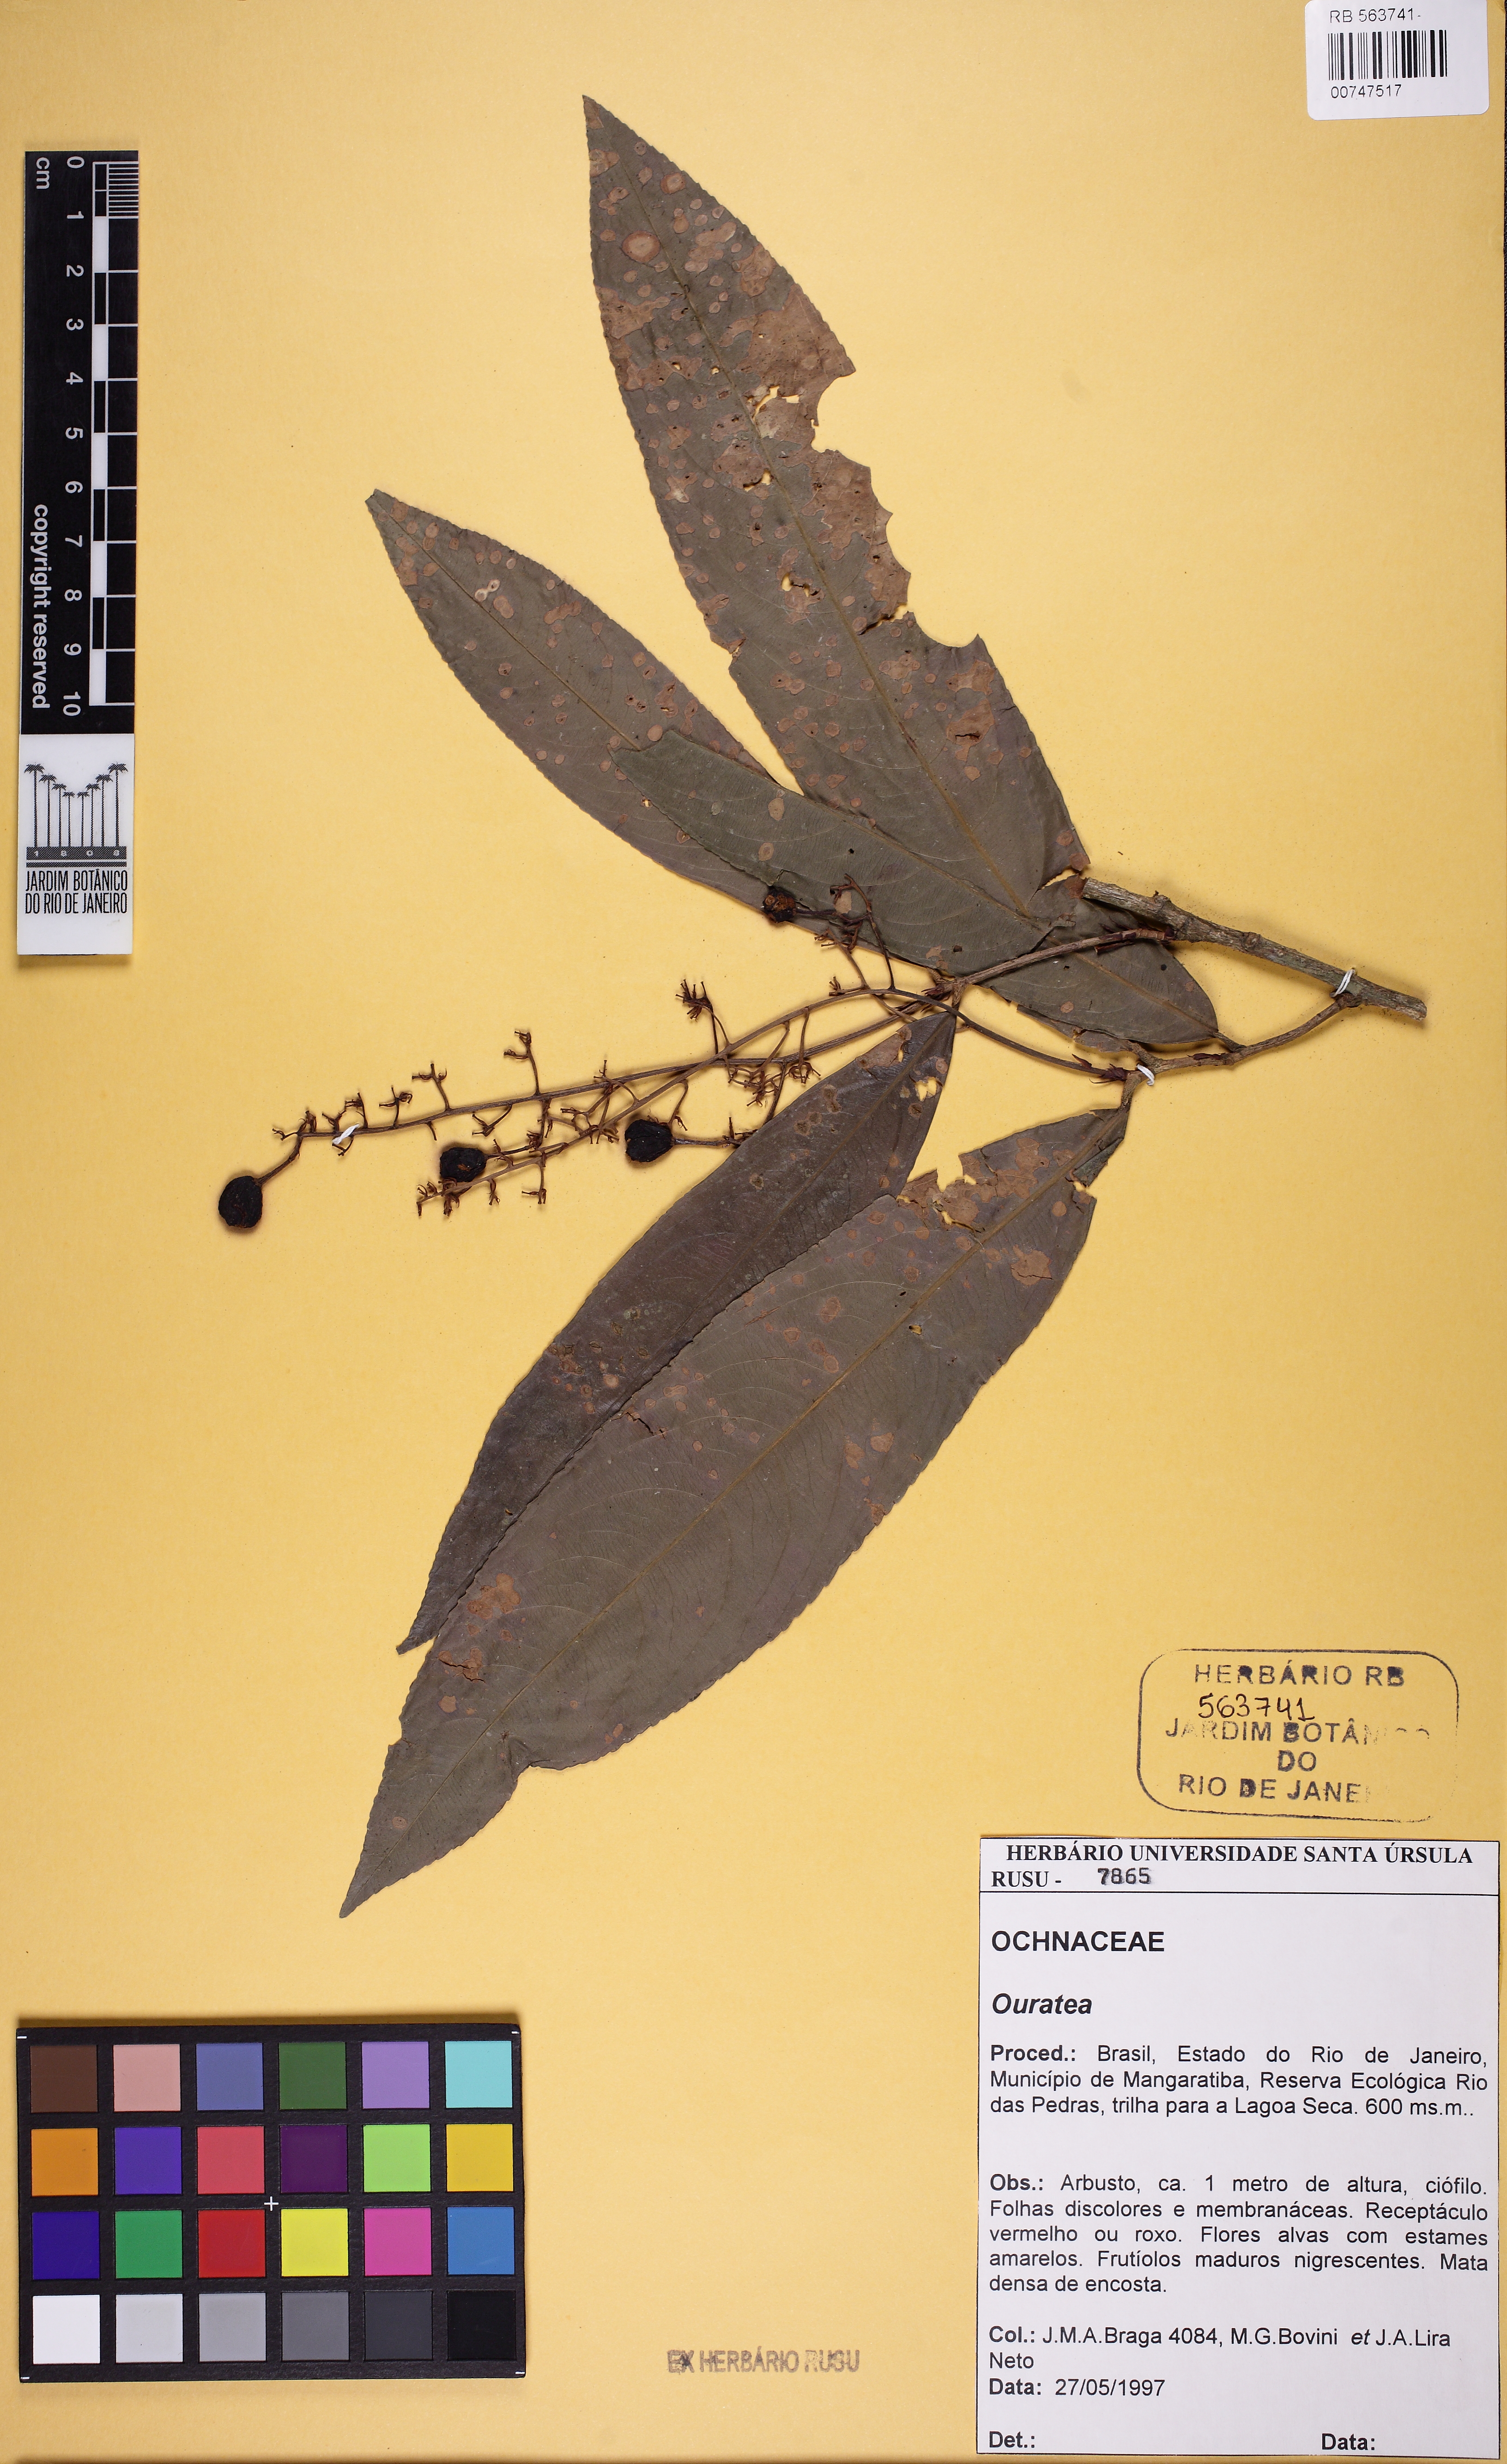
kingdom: Plantae
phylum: Tracheophyta
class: Magnoliopsida
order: Malpighiales
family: Ochnaceae
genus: Ouratea
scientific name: Ouratea
